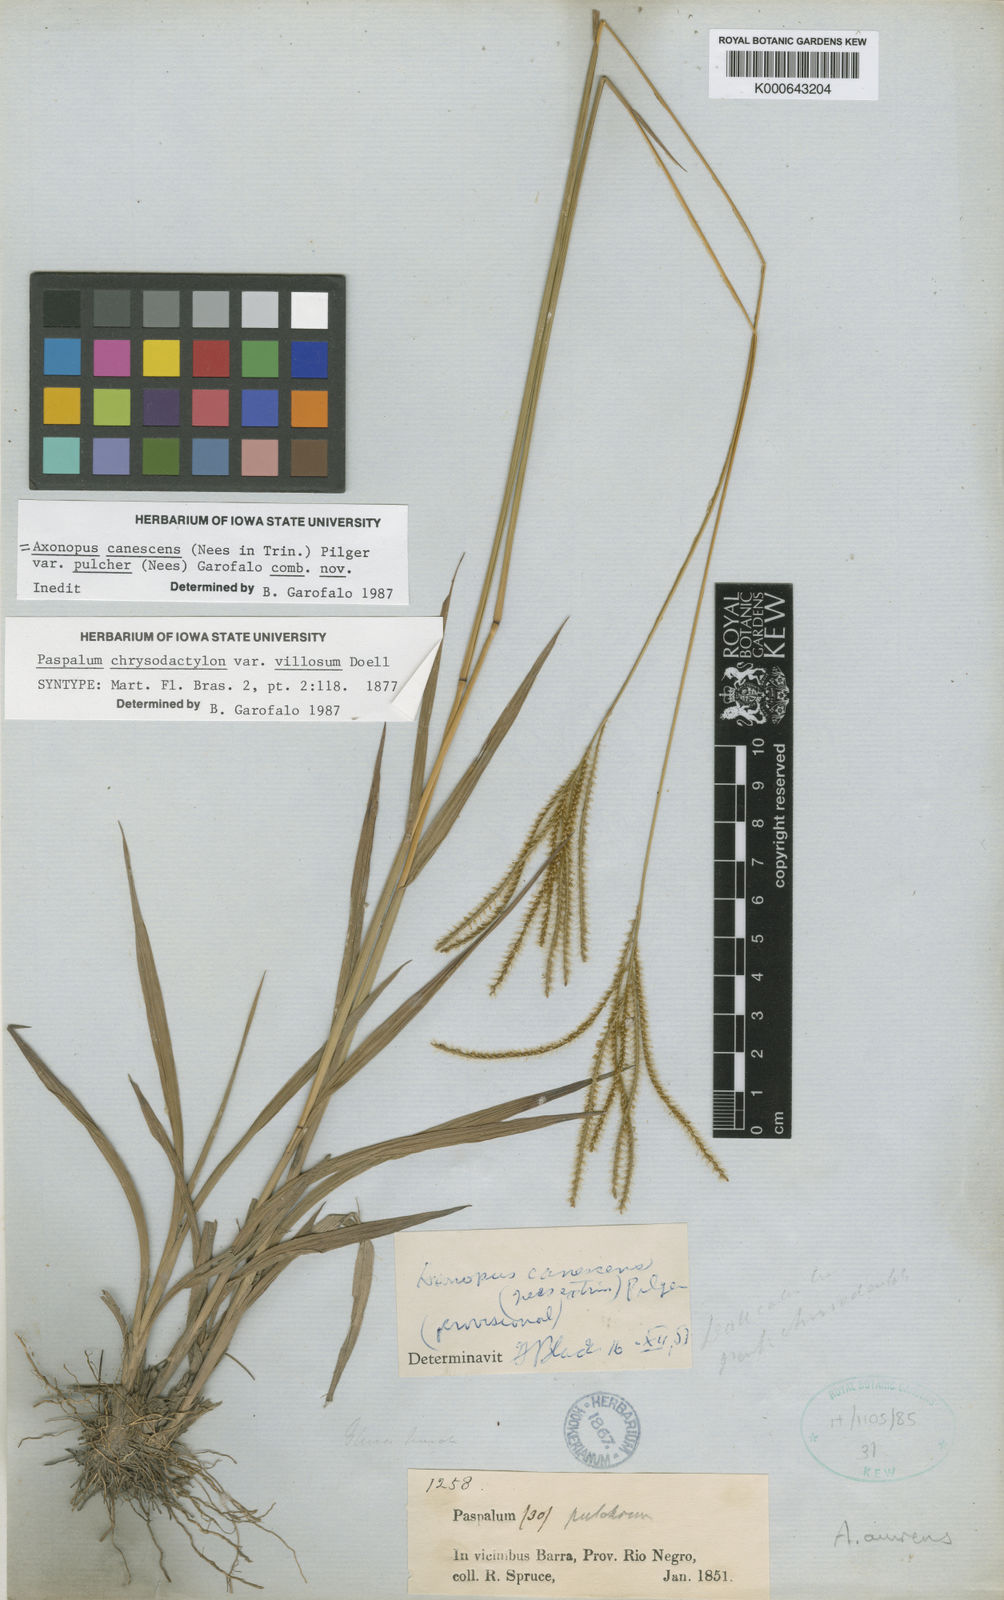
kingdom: Plantae
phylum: Tracheophyta
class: Liliopsida
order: Poales
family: Poaceae
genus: Axonopus
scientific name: Axonopus aureus
